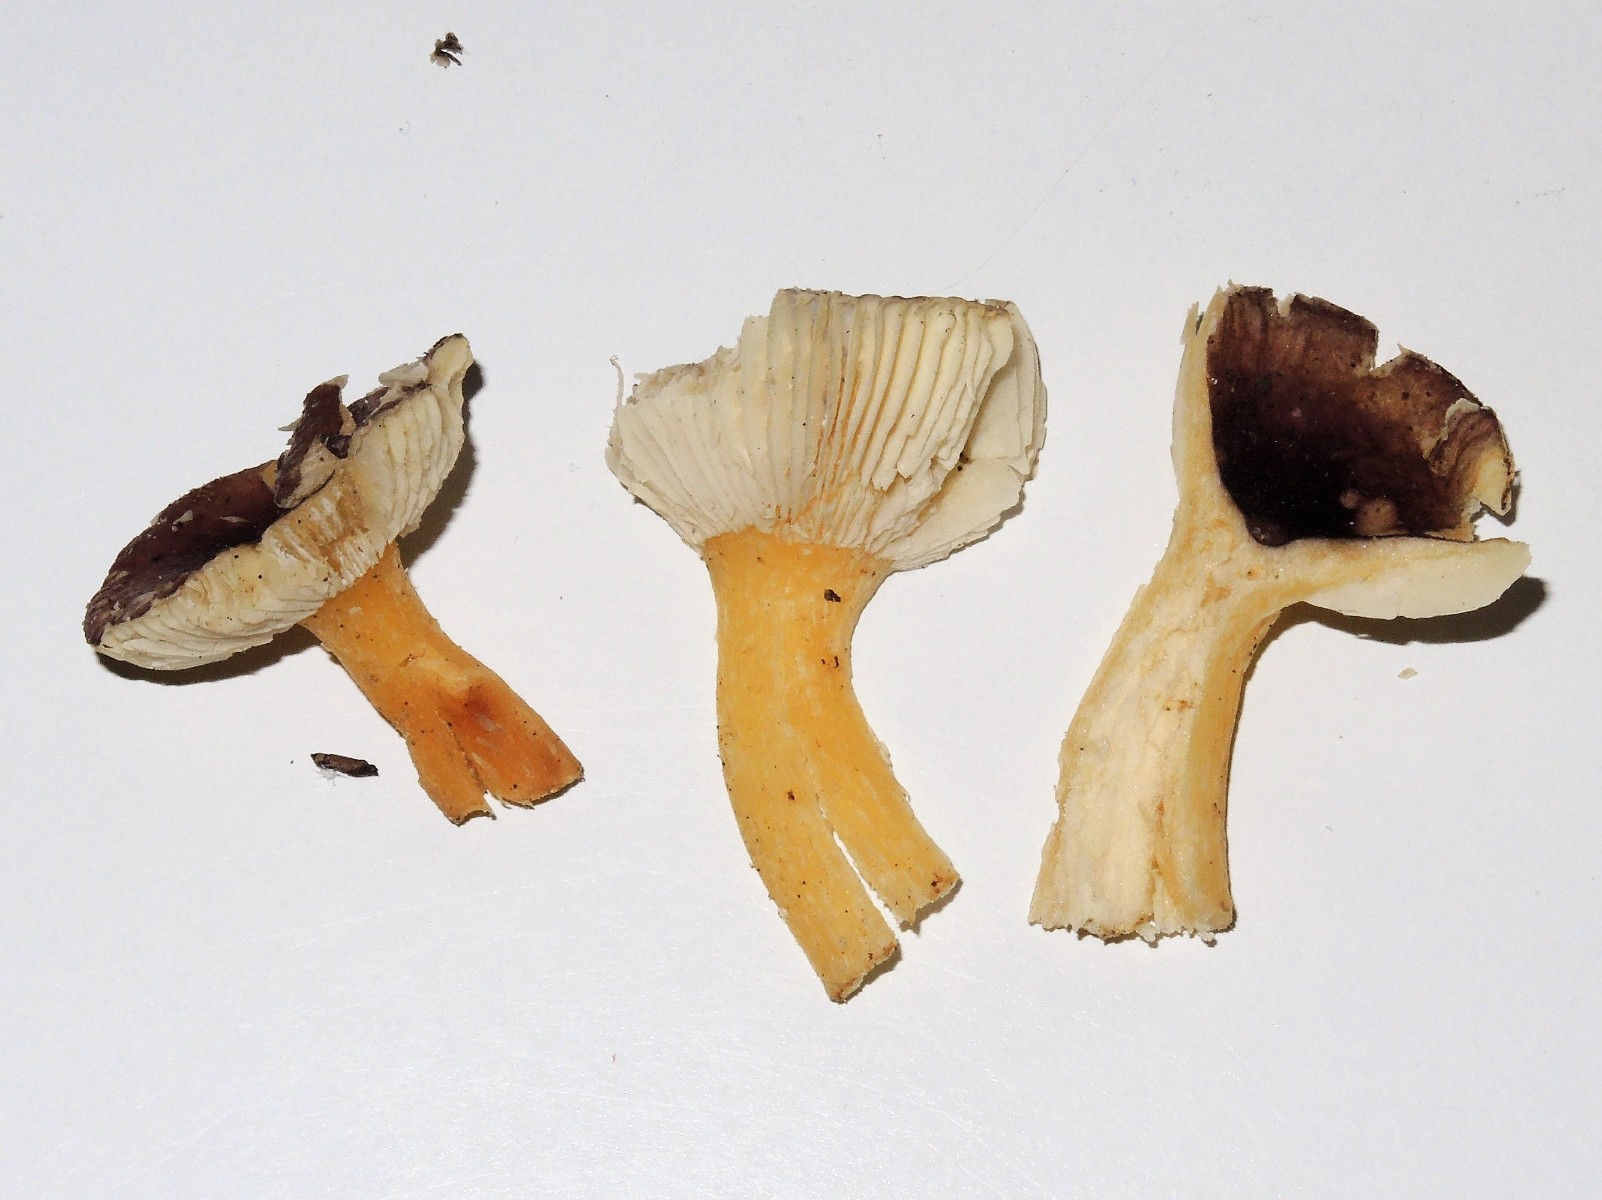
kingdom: Fungi
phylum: Basidiomycota
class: Agaricomycetes
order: Russulales
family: Russulaceae
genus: Russula
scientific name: Russula puellaris
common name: gulstokket skørhat
